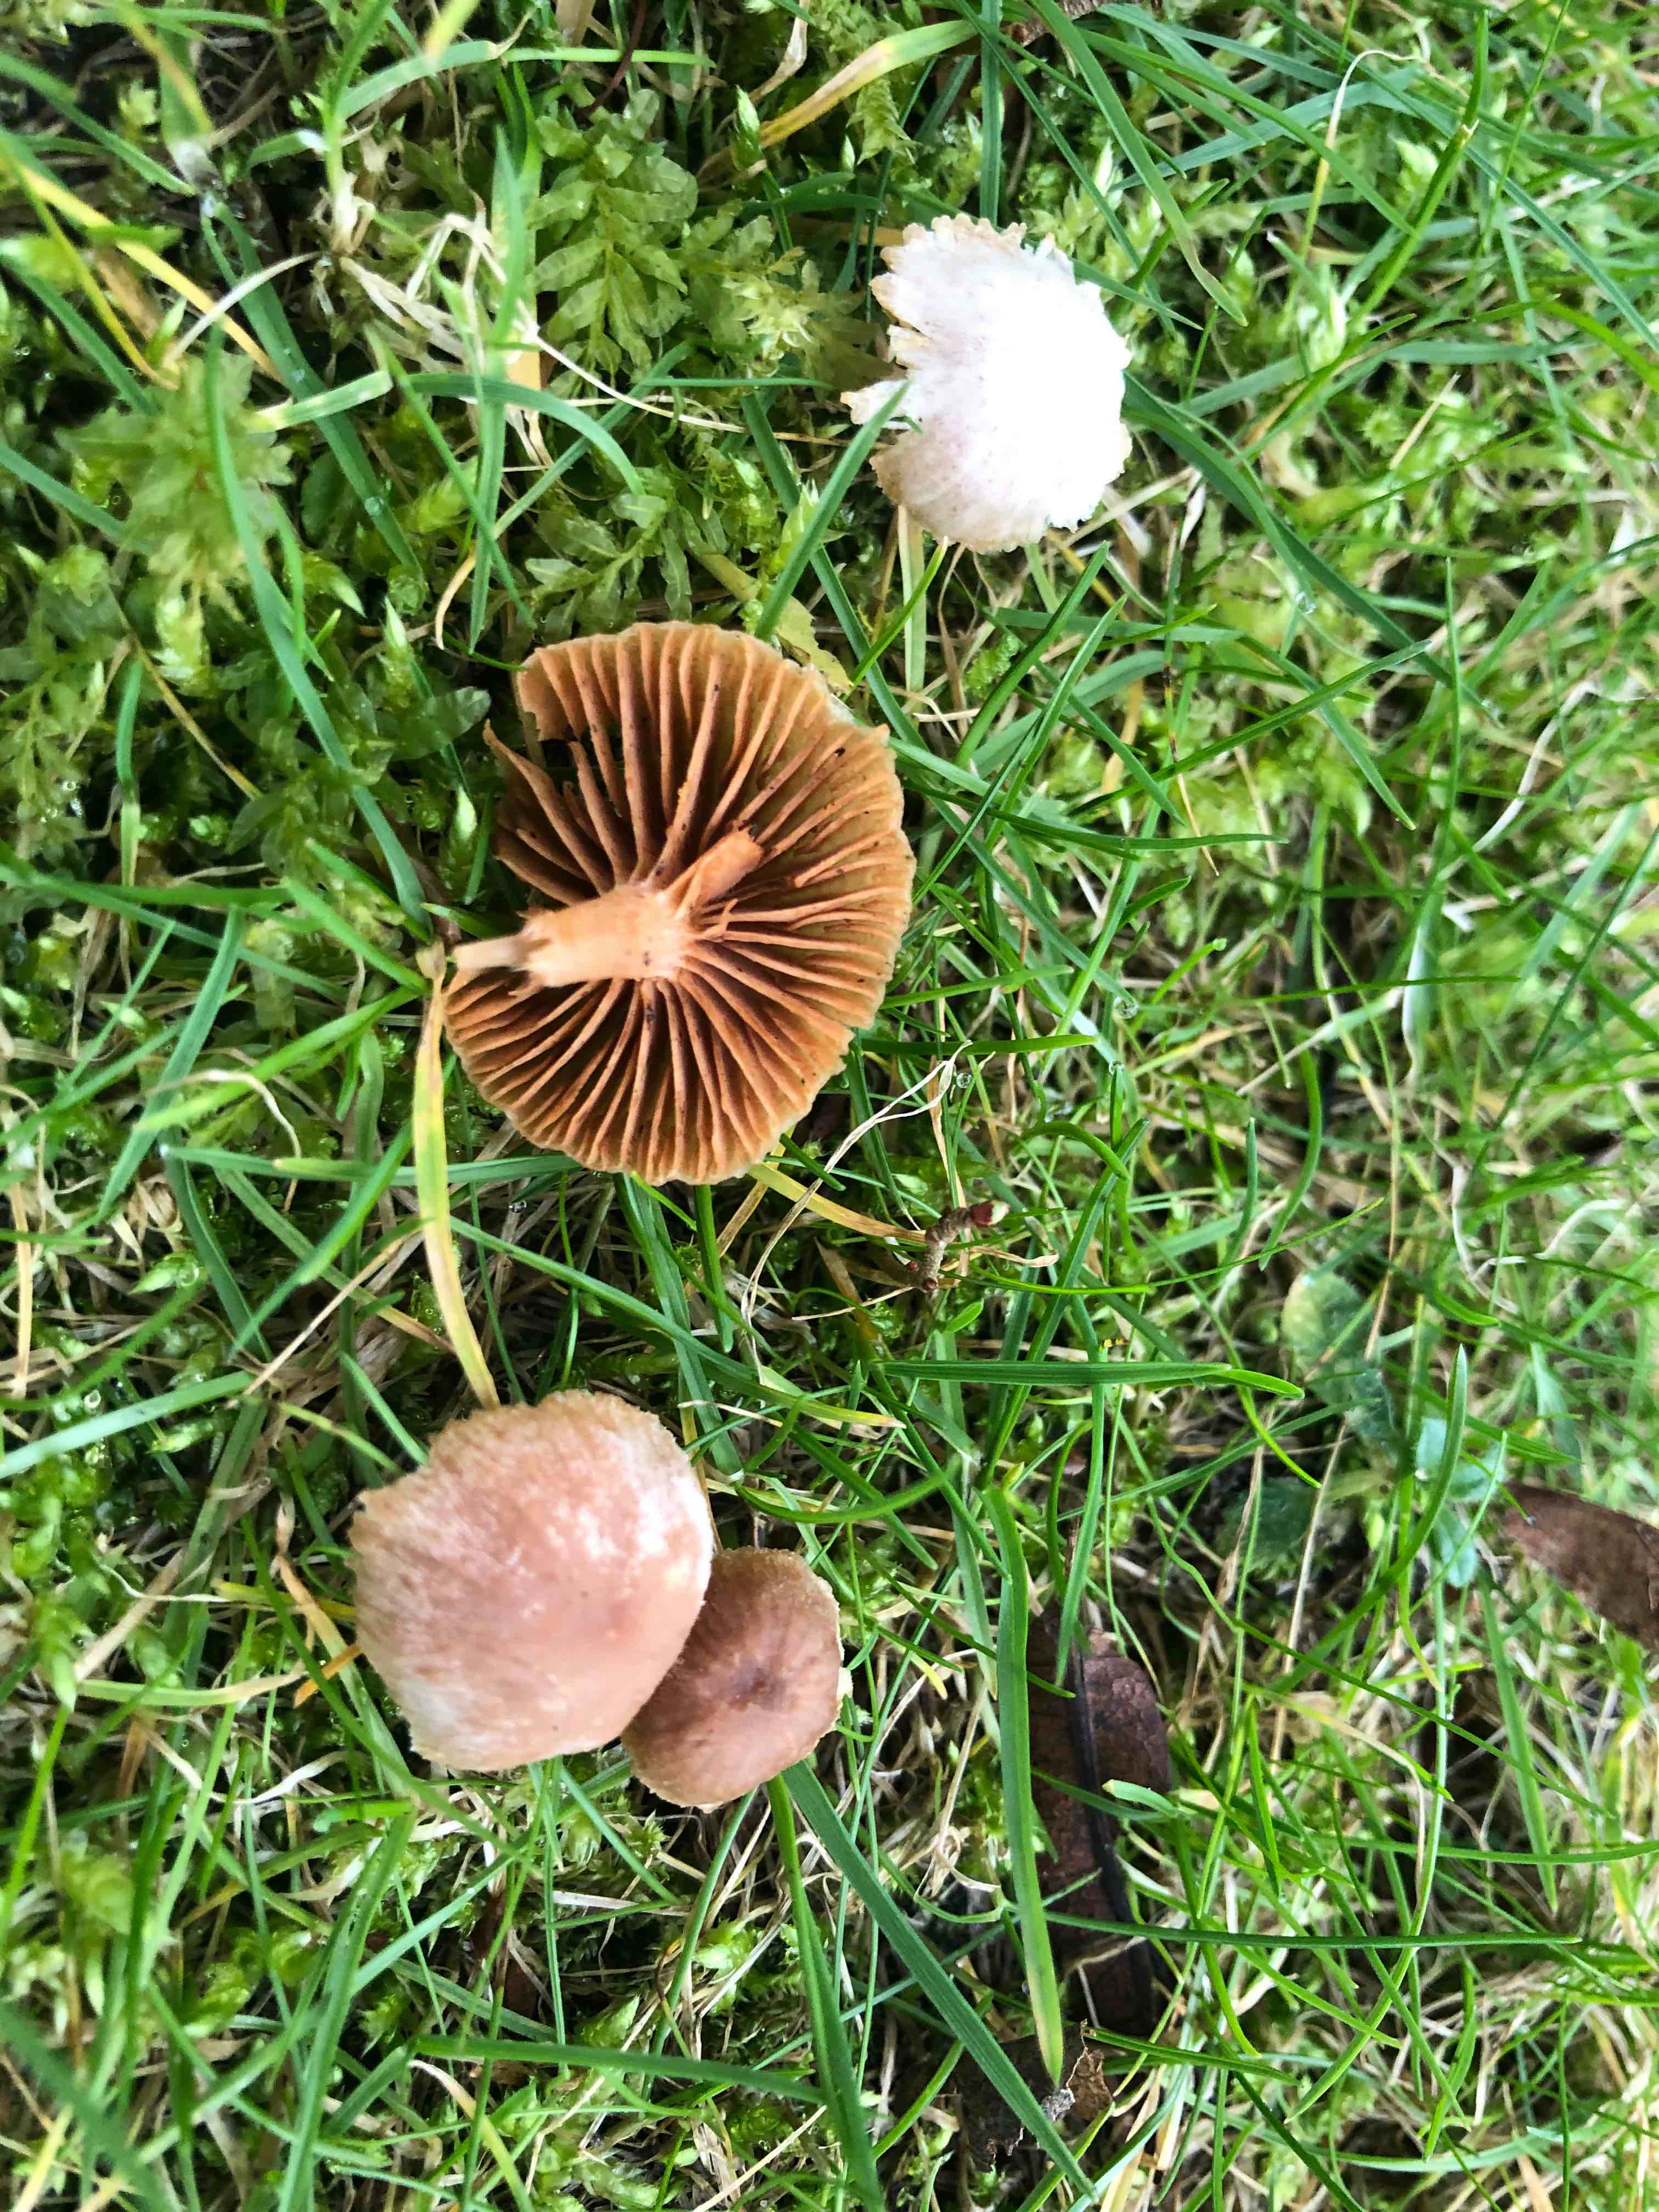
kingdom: Fungi
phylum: Basidiomycota
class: Agaricomycetes
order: Agaricales
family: Tubariaceae
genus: Tubaria
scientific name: Tubaria furfuracea
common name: kliddet fnughat
